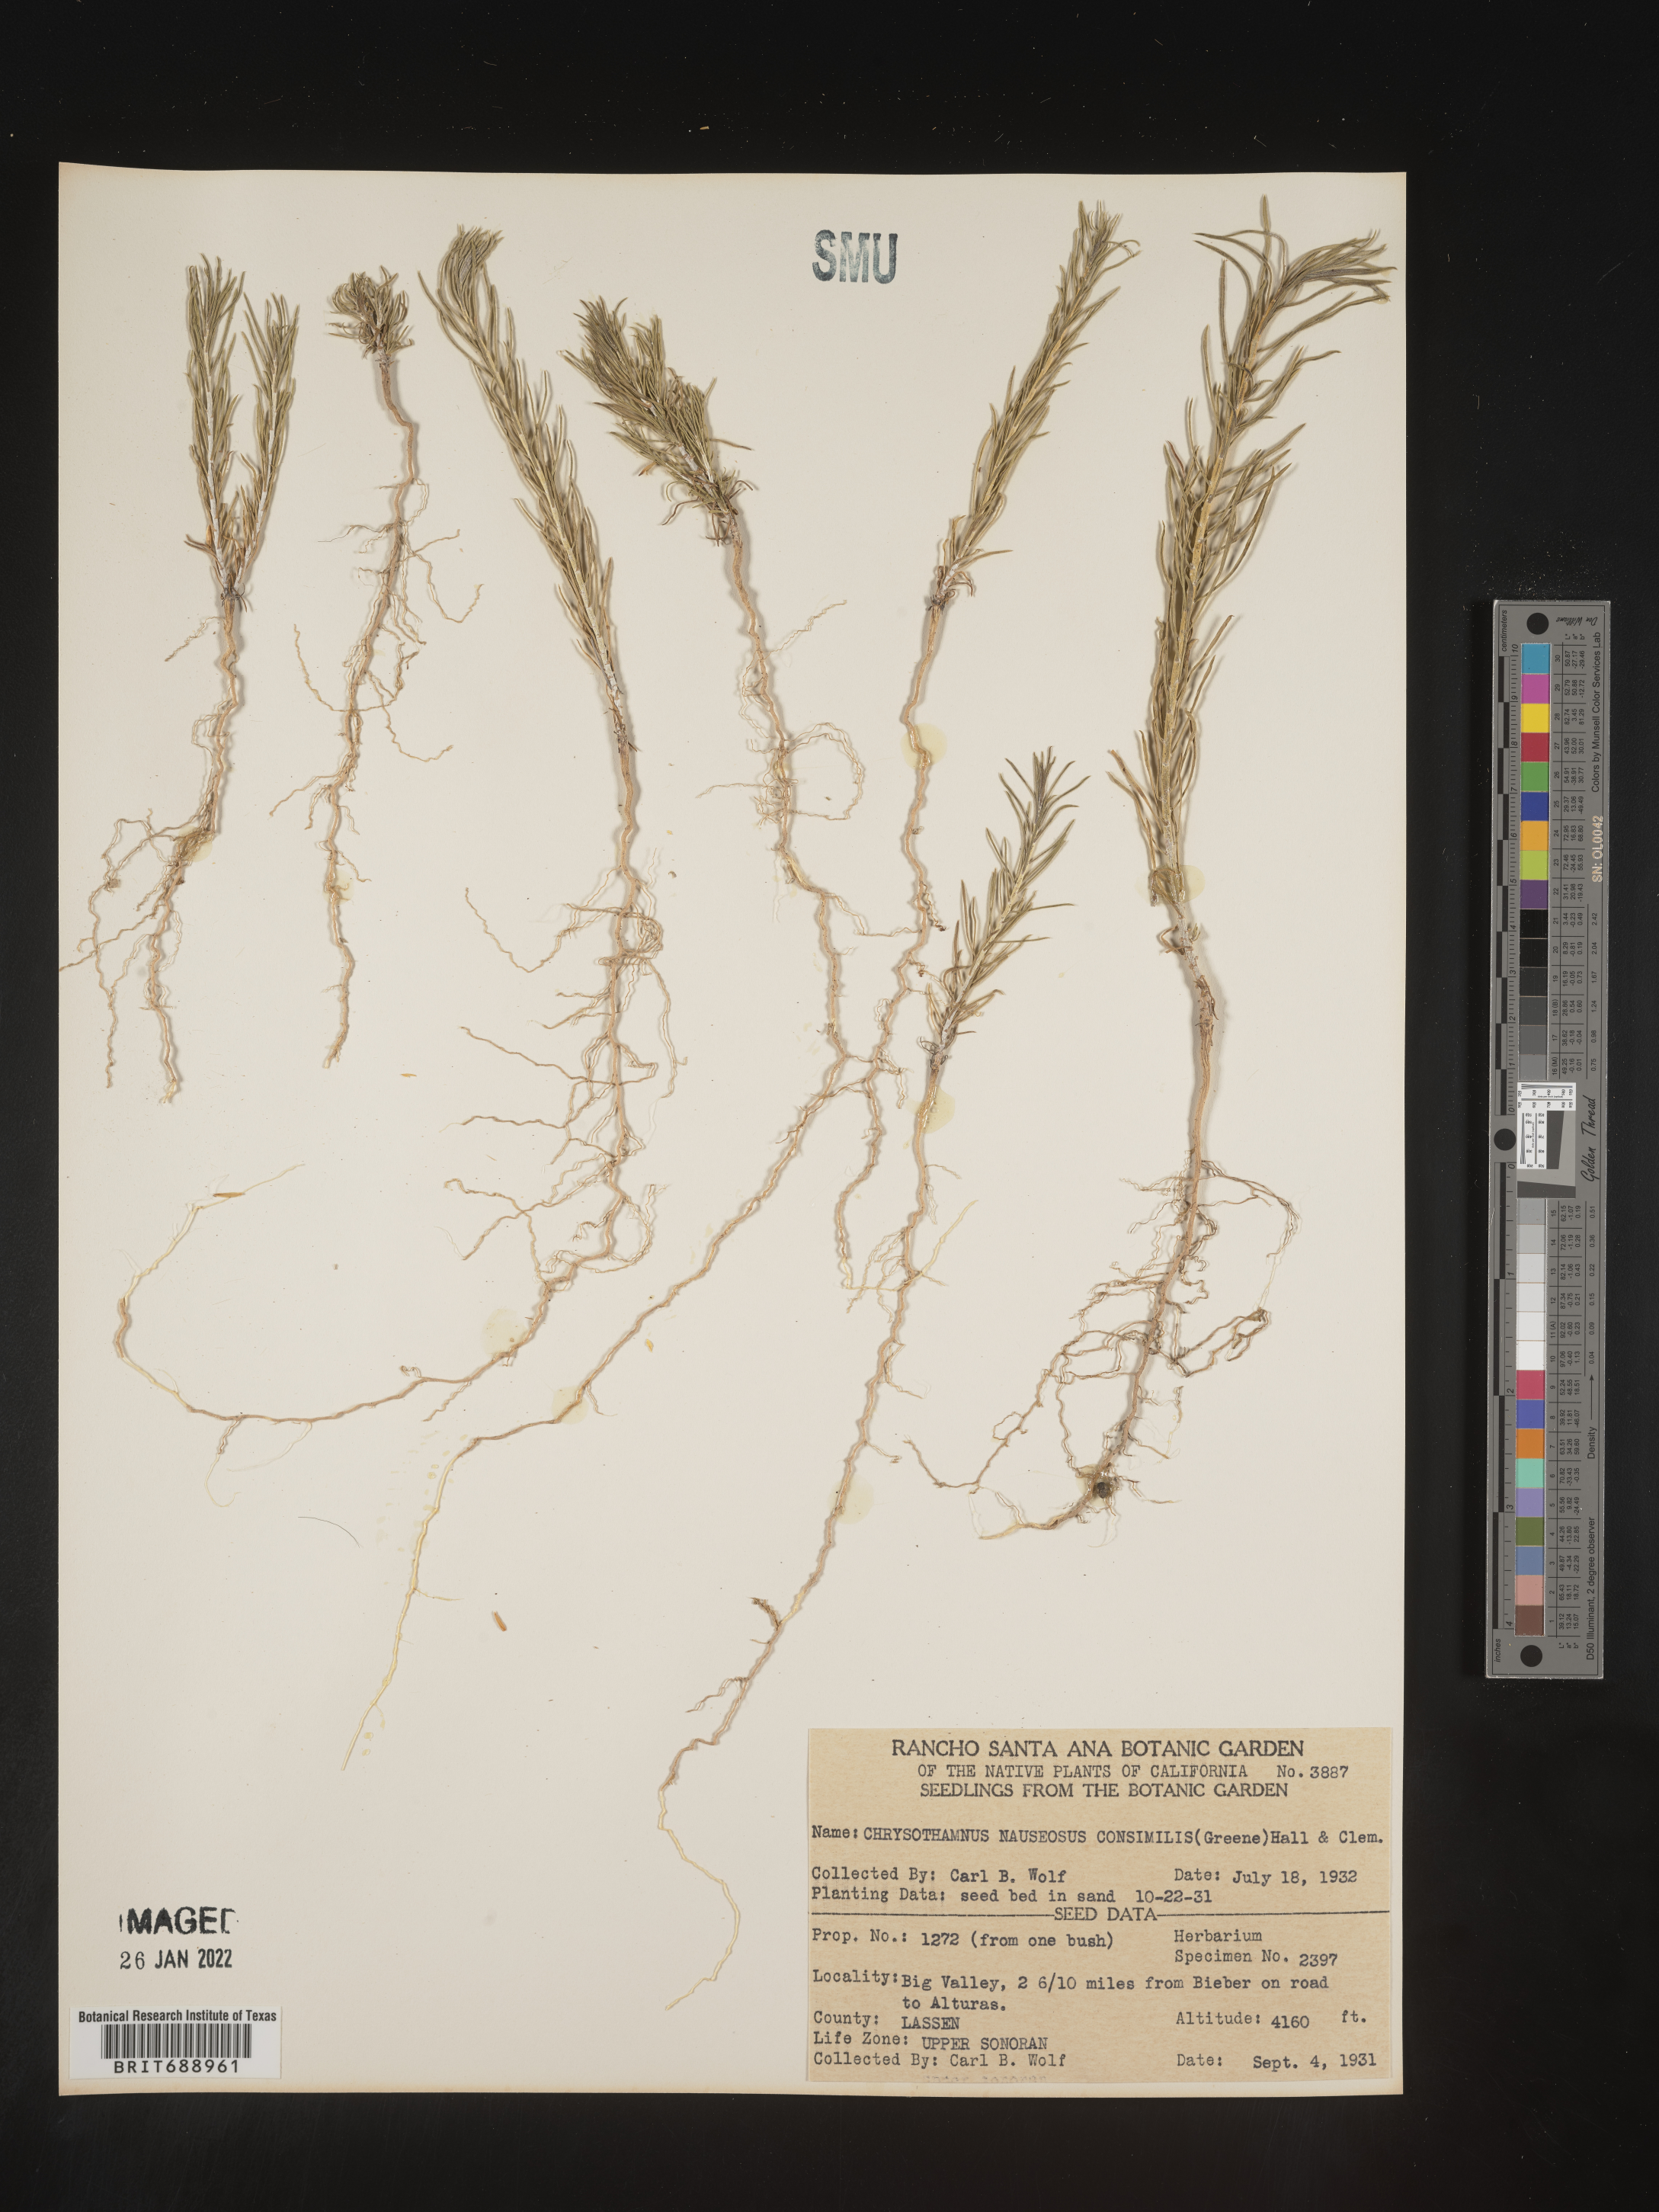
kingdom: Plantae
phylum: Tracheophyta
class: Magnoliopsida
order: Asterales
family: Asteraceae
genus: Ericameria
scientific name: Ericameria nauseosa
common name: Rubber rabbitbrush
